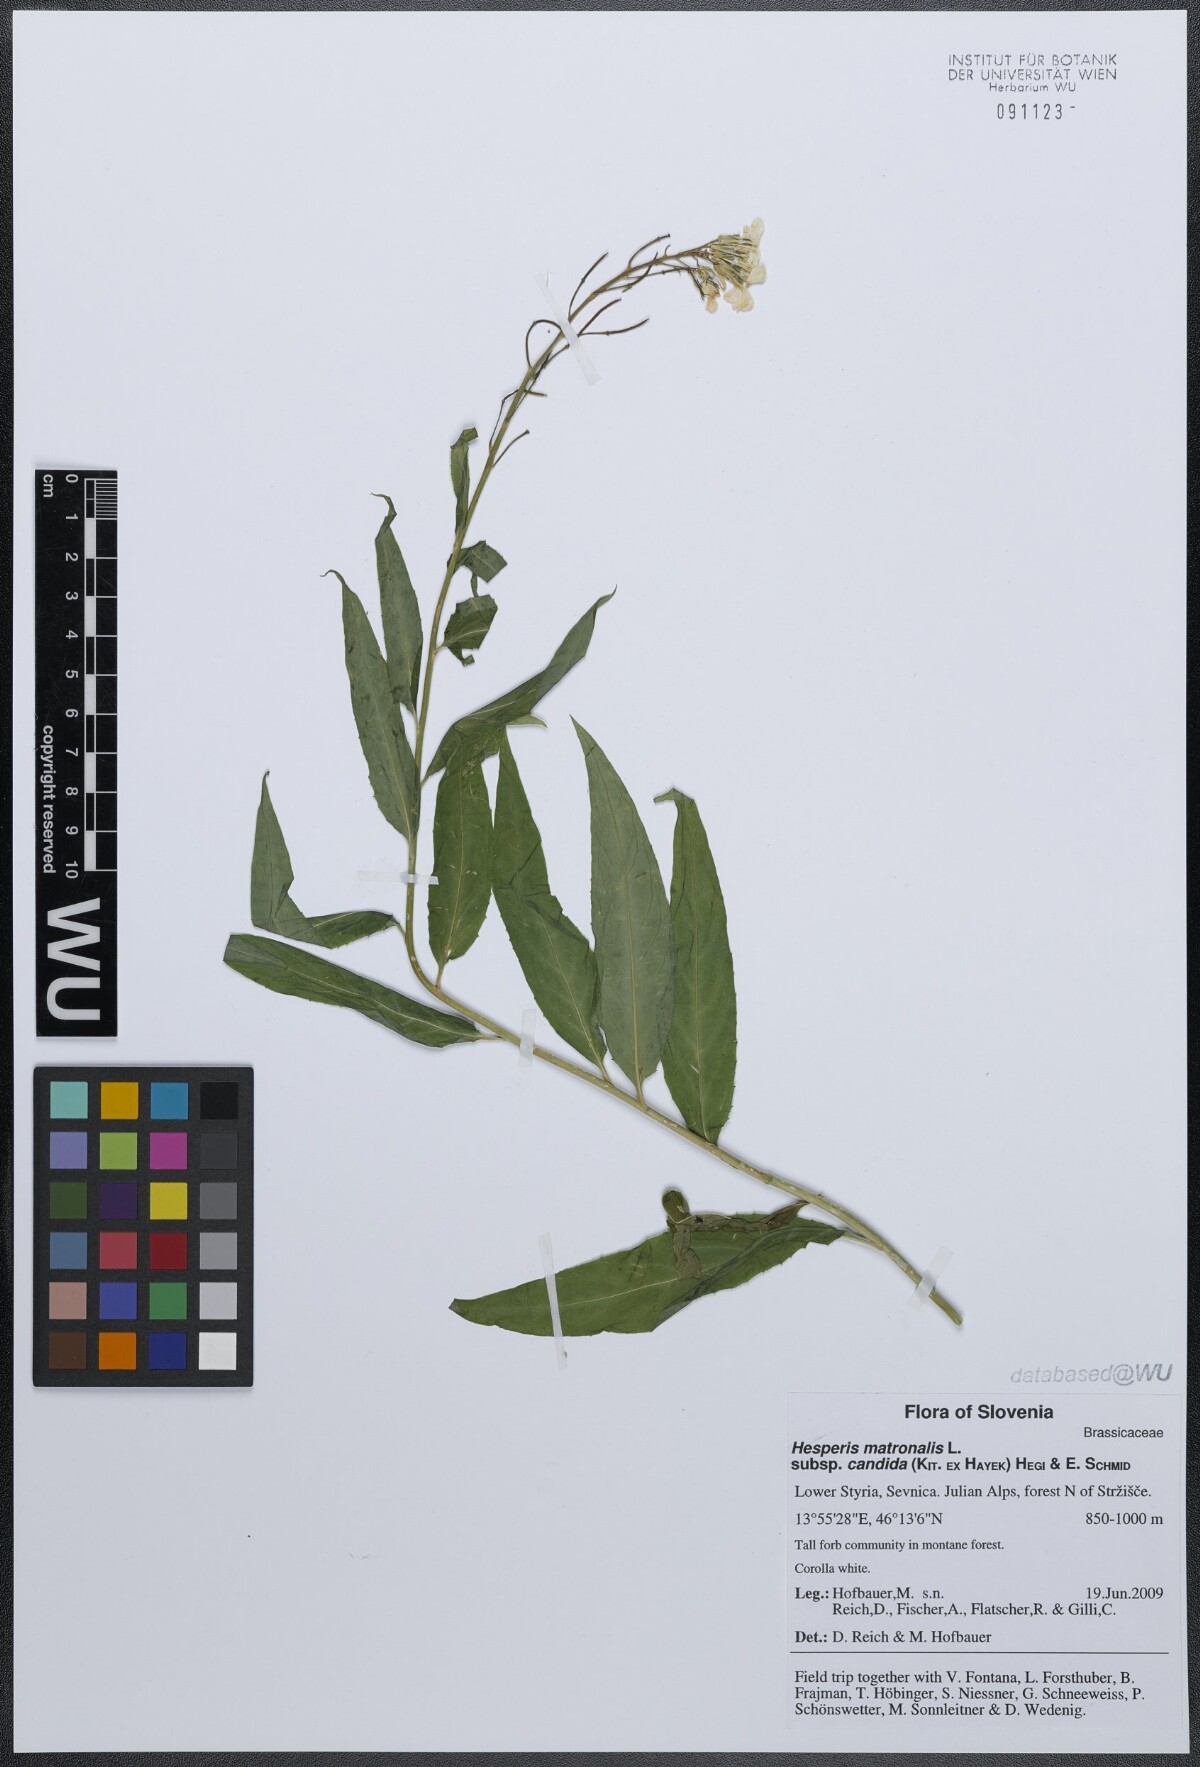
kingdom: Plantae
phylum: Tracheophyta
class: Magnoliopsida
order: Brassicales
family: Brassicaceae
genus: Hesperis
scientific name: Hesperis matronalis
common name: Dame's-violet
